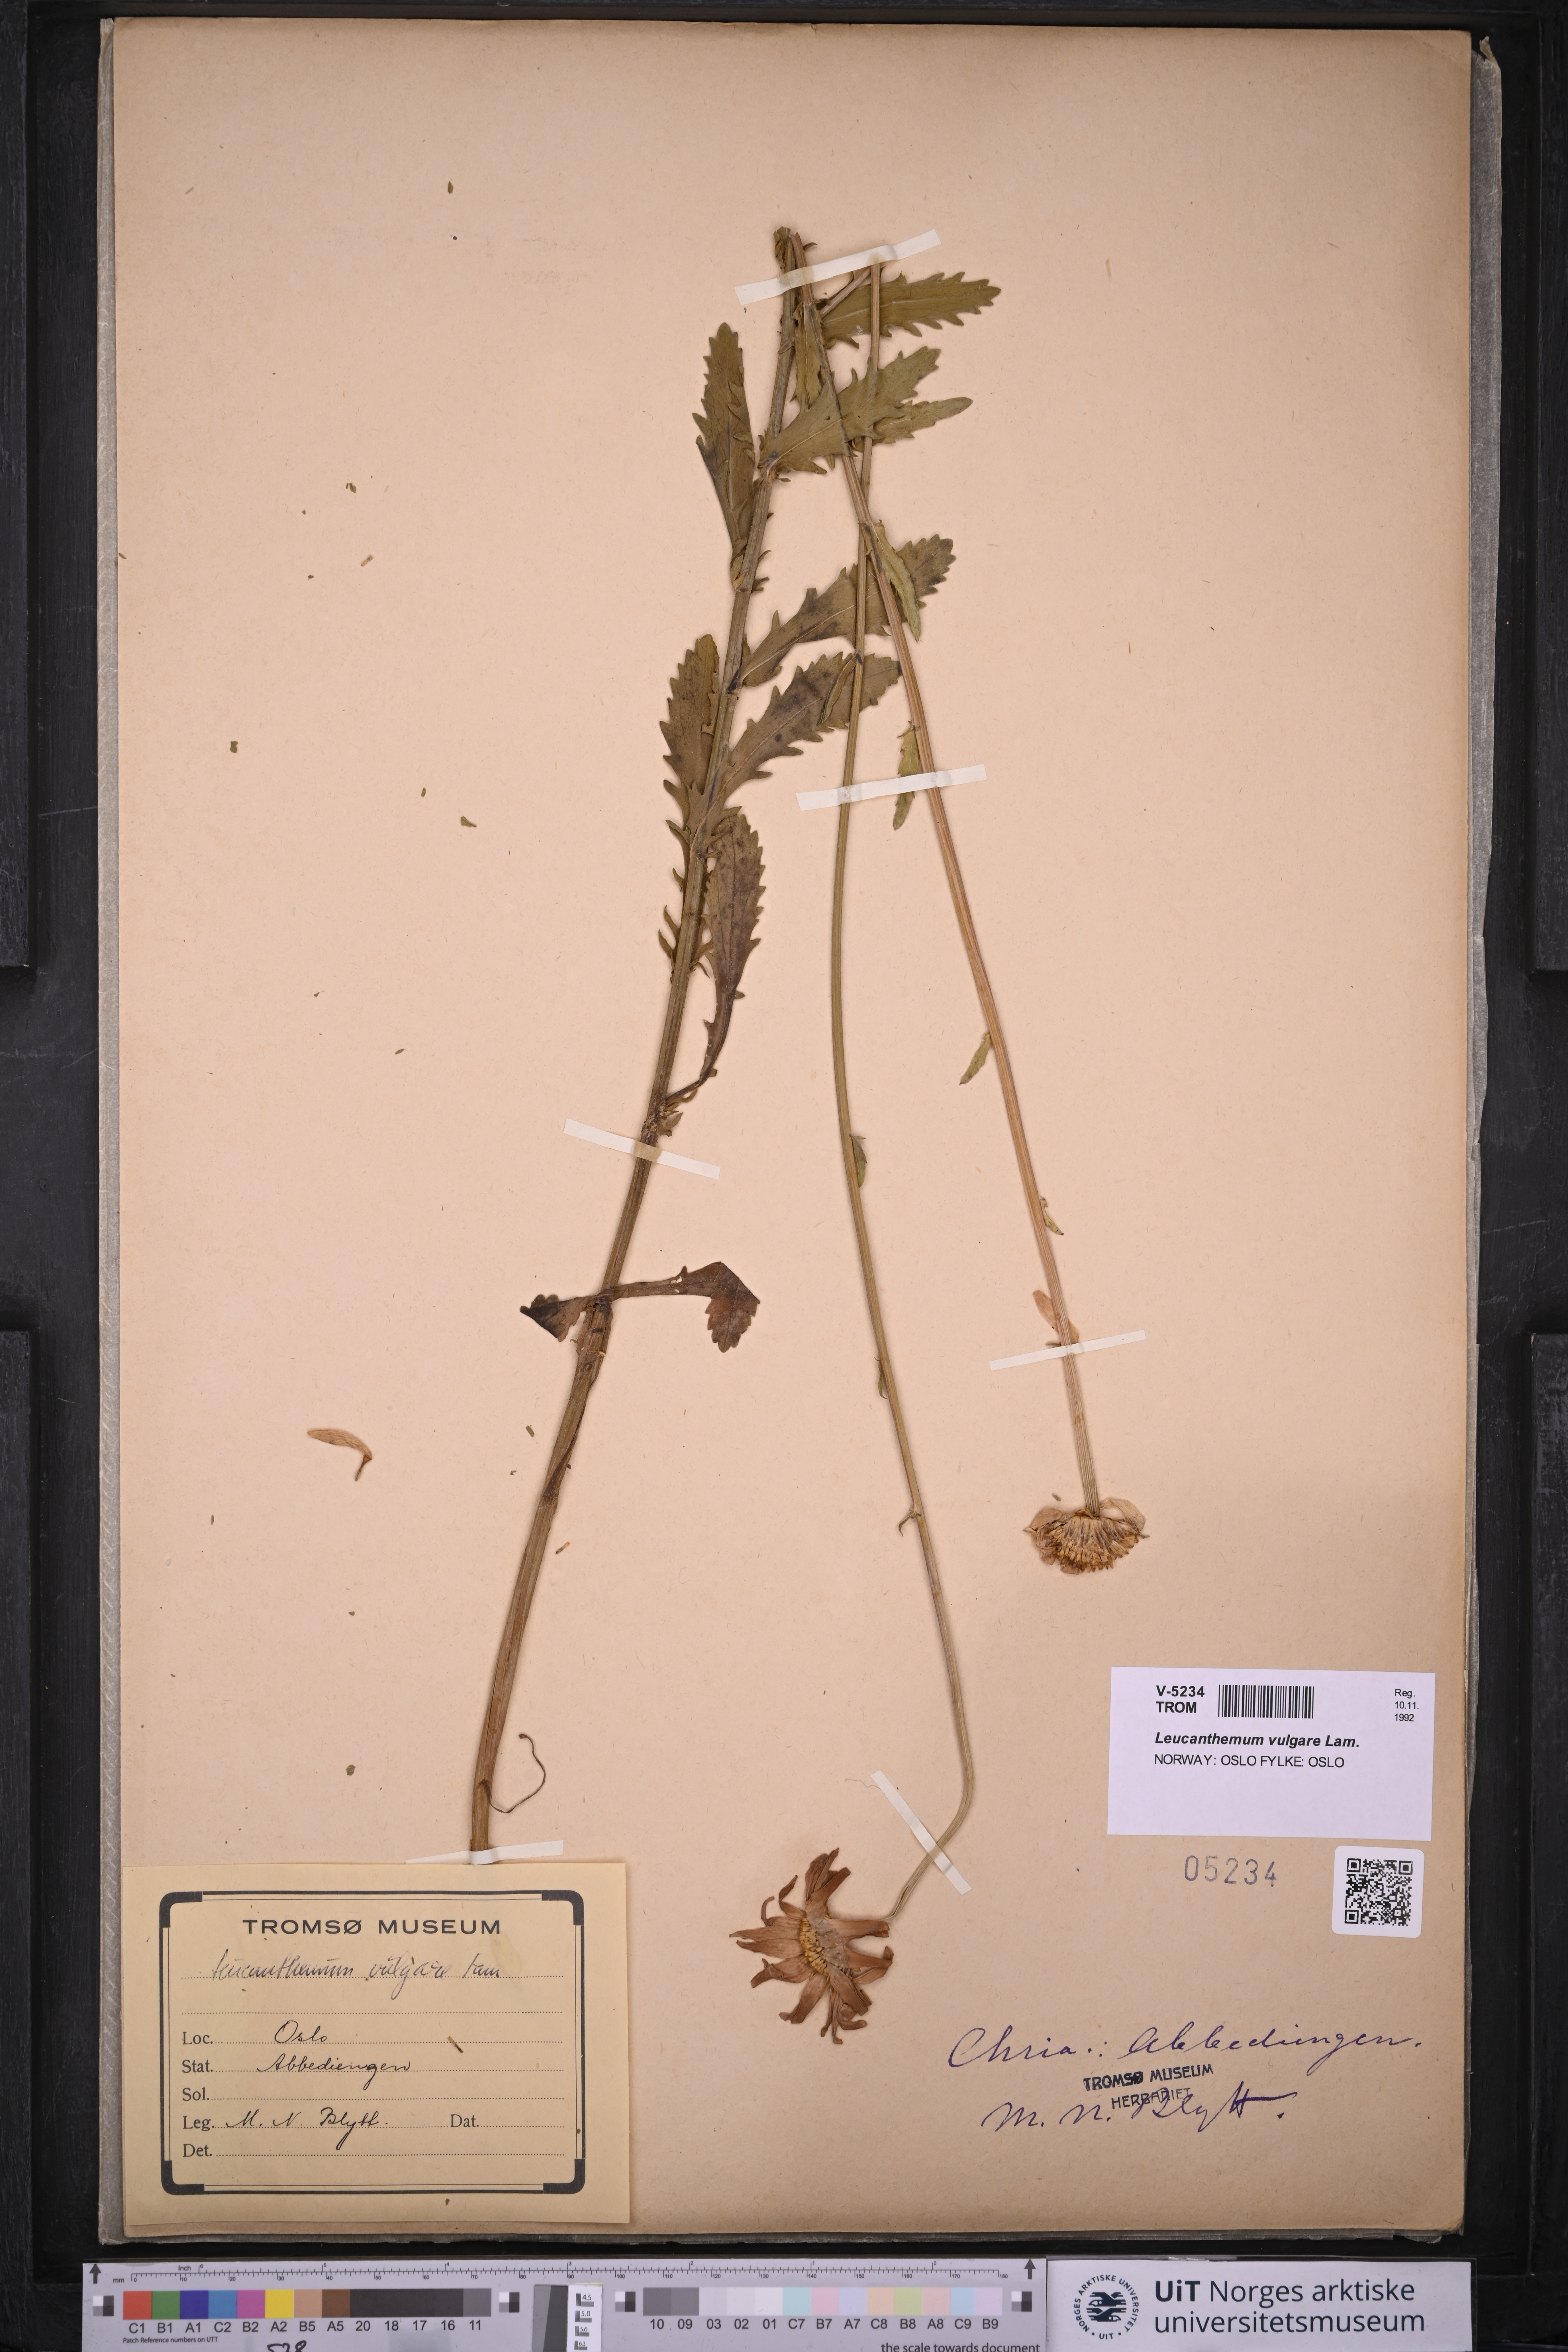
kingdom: Plantae
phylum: Tracheophyta
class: Magnoliopsida
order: Asterales
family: Asteraceae
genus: Leucanthemum
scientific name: Leucanthemum vulgare
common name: Oxeye daisy
